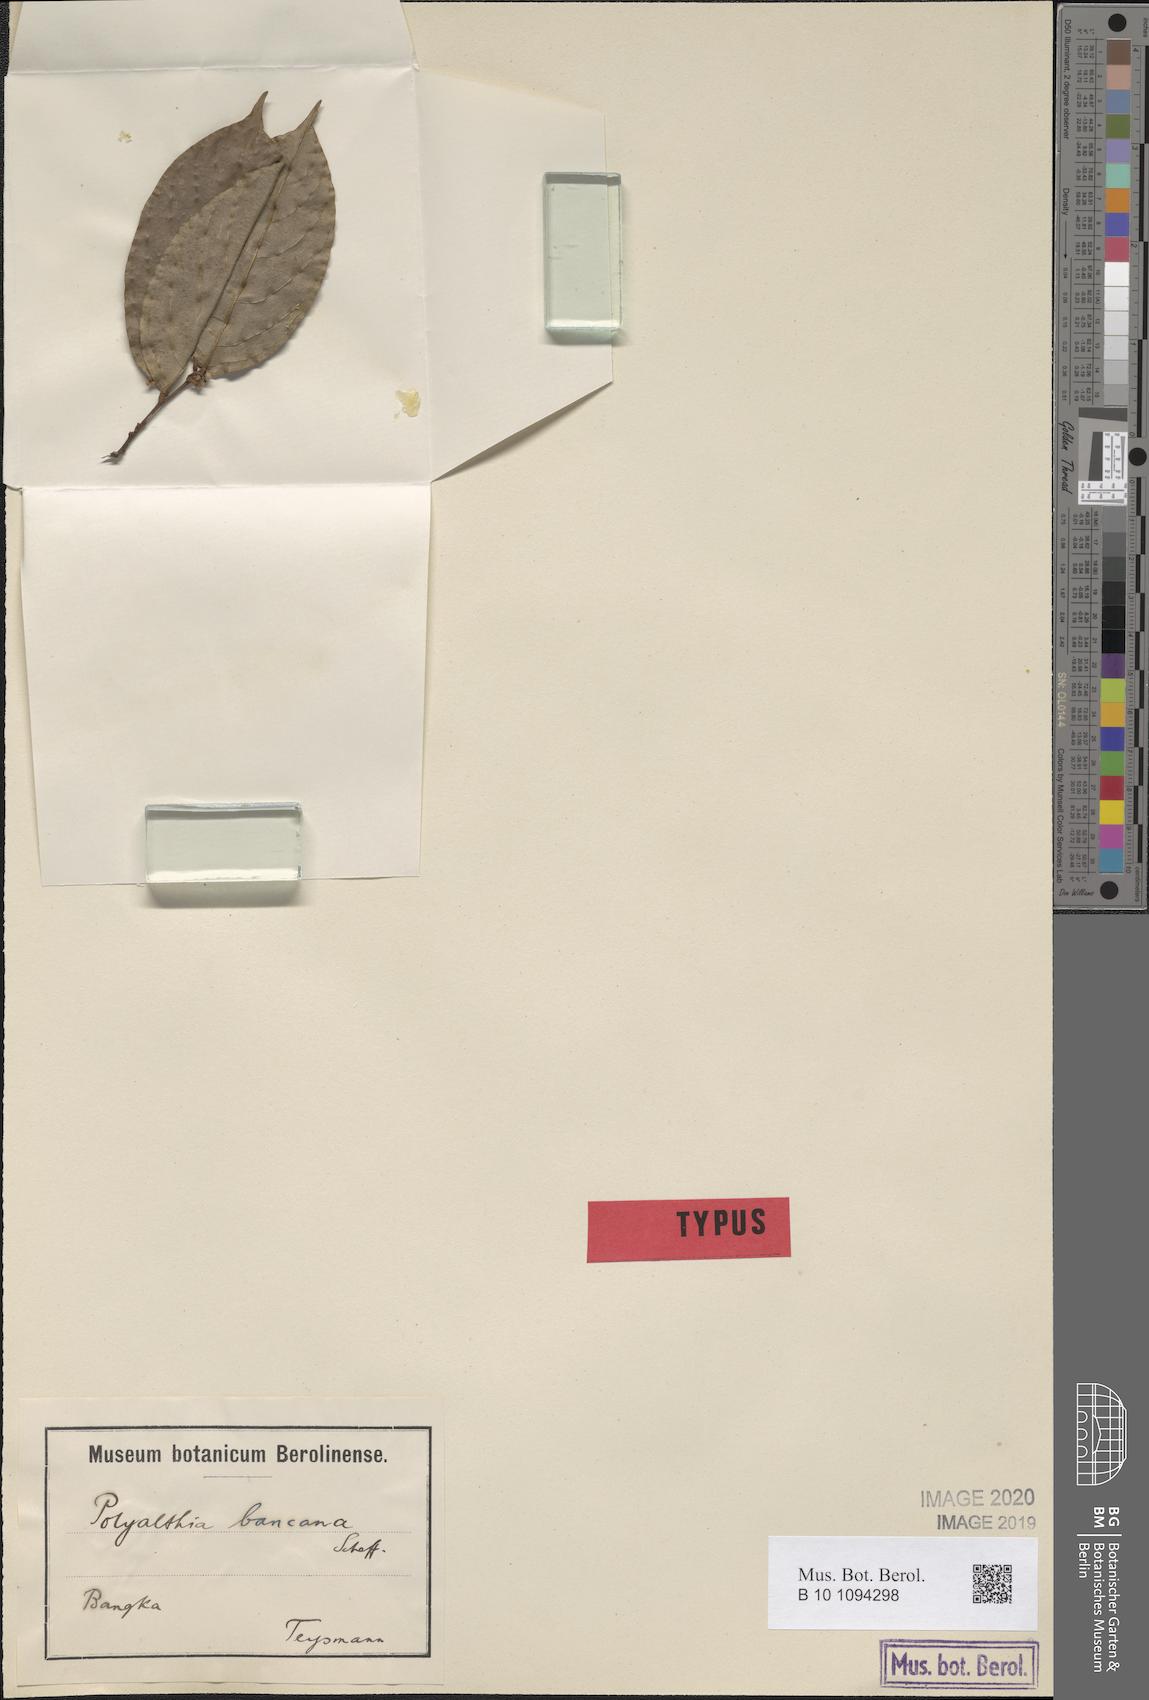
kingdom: Plantae
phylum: Tracheophyta
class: Magnoliopsida
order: Magnoliales
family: Annonaceae
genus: Popowia
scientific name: Popowia bancana
